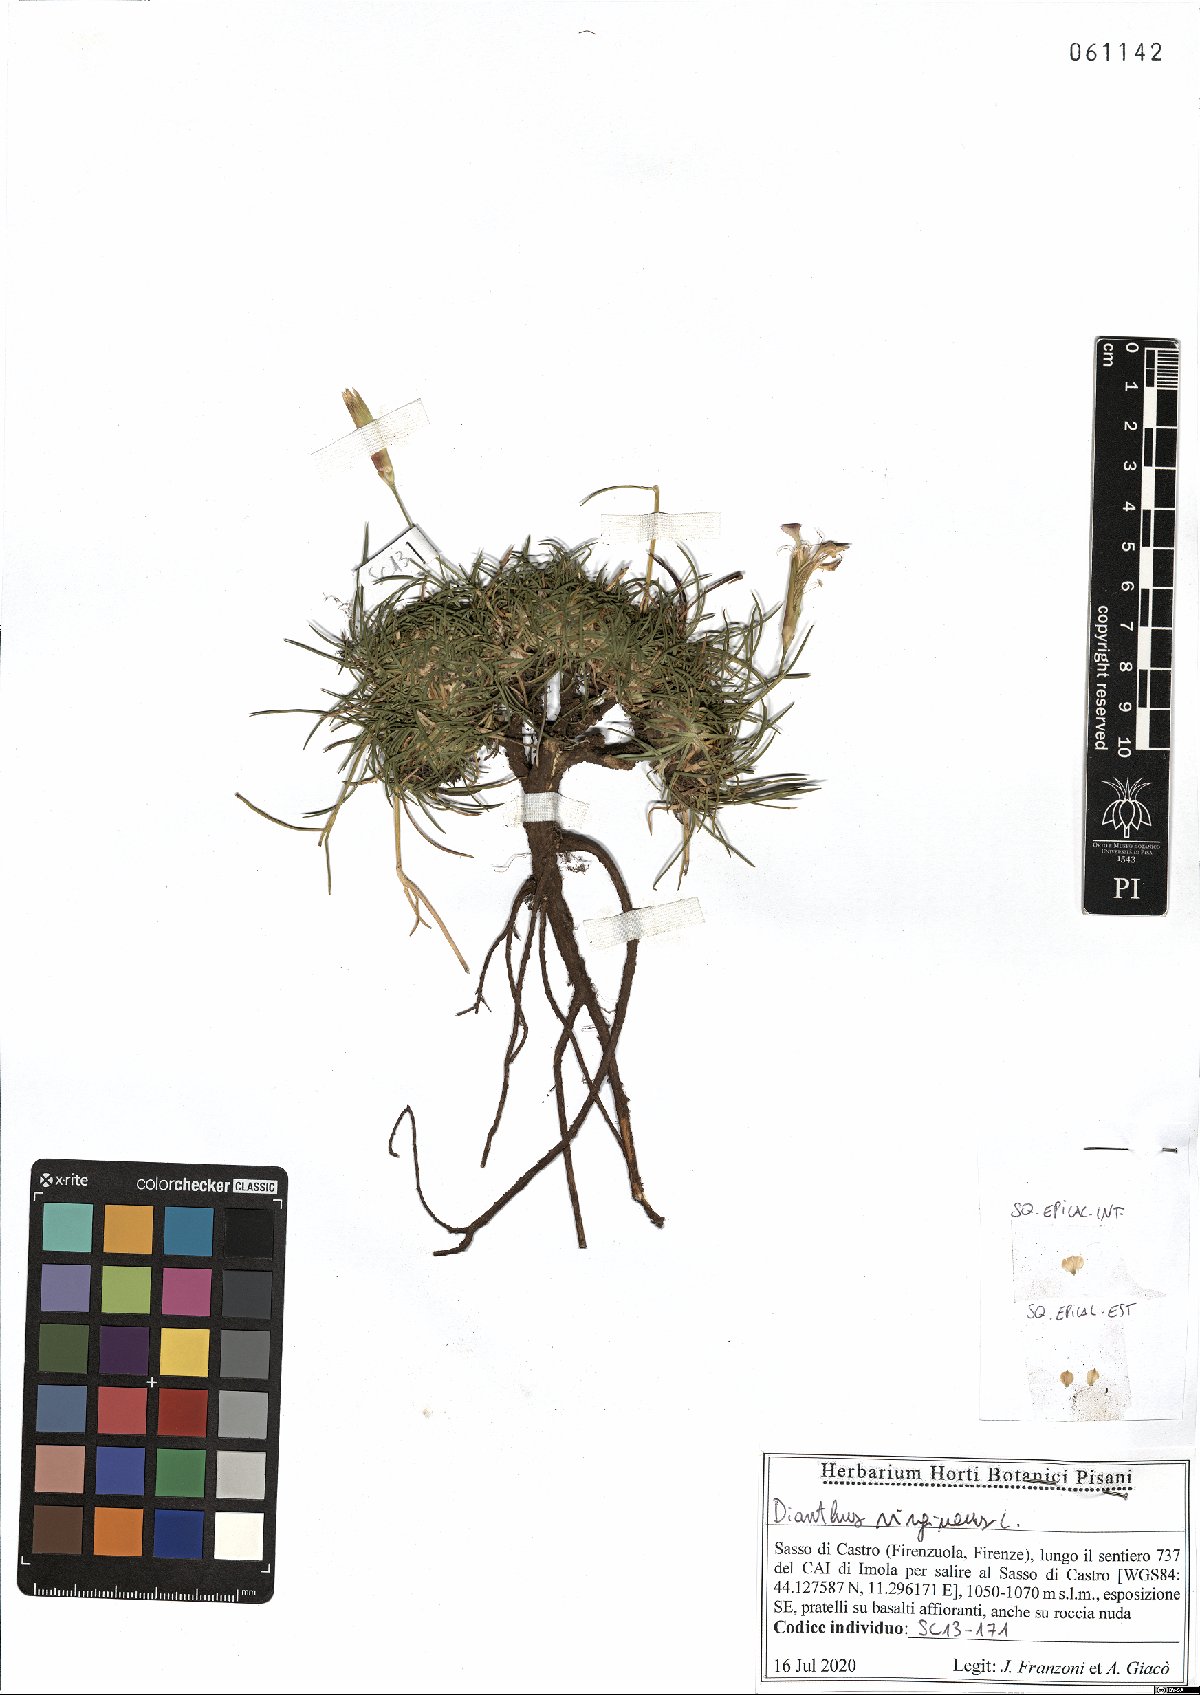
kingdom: Plantae
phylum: Tracheophyta
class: Magnoliopsida
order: Caryophyllales
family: Caryophyllaceae
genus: Dianthus
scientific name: Dianthus virgineus
